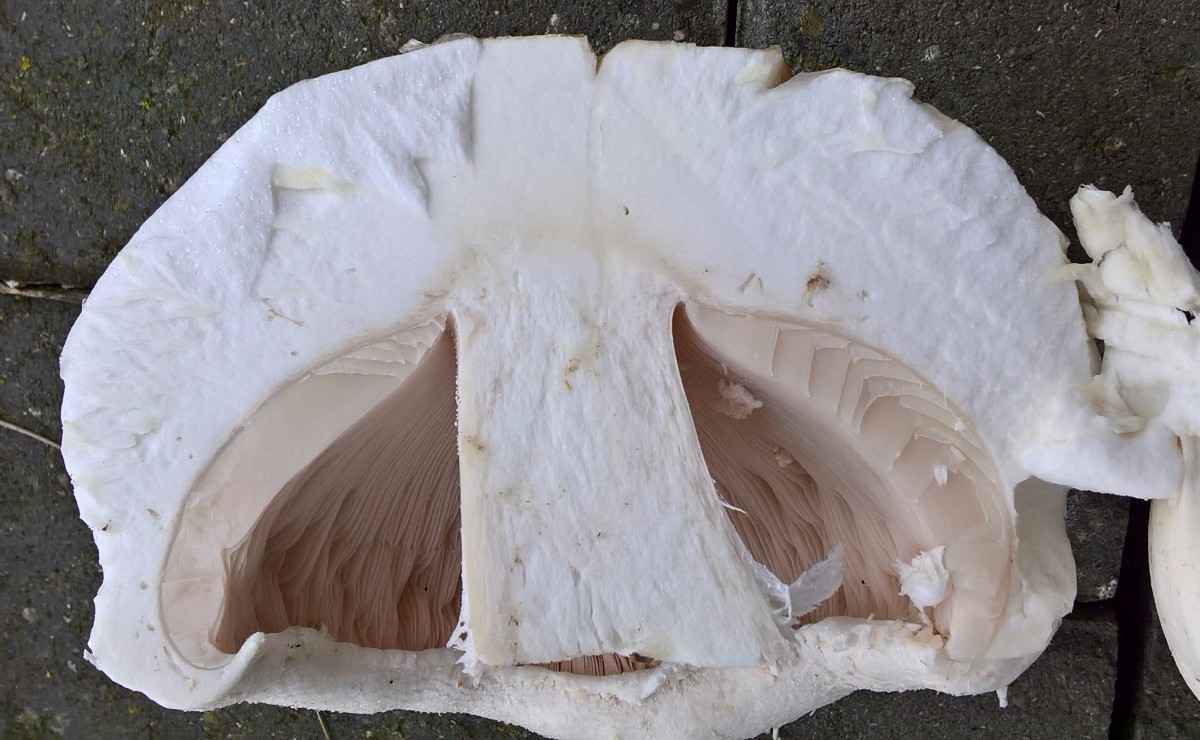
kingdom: Fungi
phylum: Basidiomycota
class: Agaricomycetes
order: Agaricales
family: Agaricaceae
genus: Agaricus
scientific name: Agaricus
